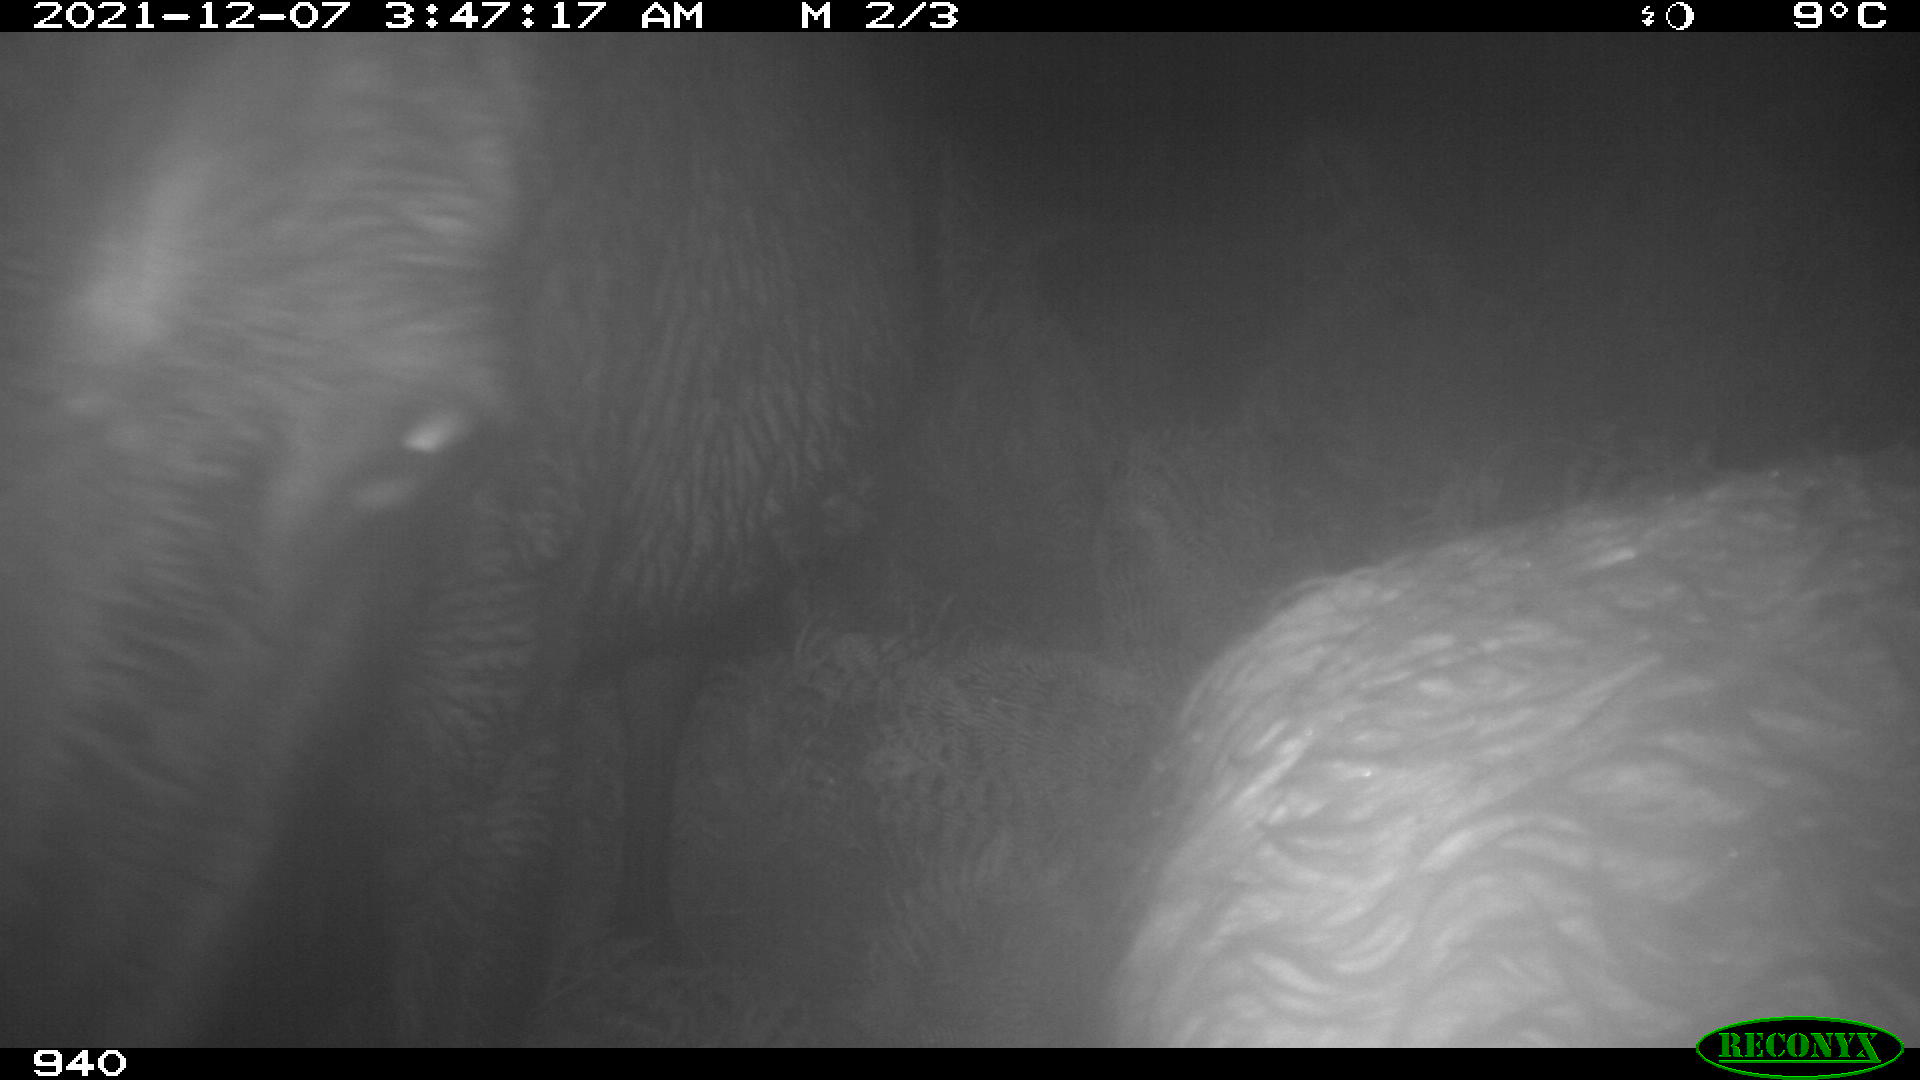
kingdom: Animalia
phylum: Chordata
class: Mammalia
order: Perissodactyla
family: Equidae
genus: Equus
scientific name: Equus caballus
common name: Horse
